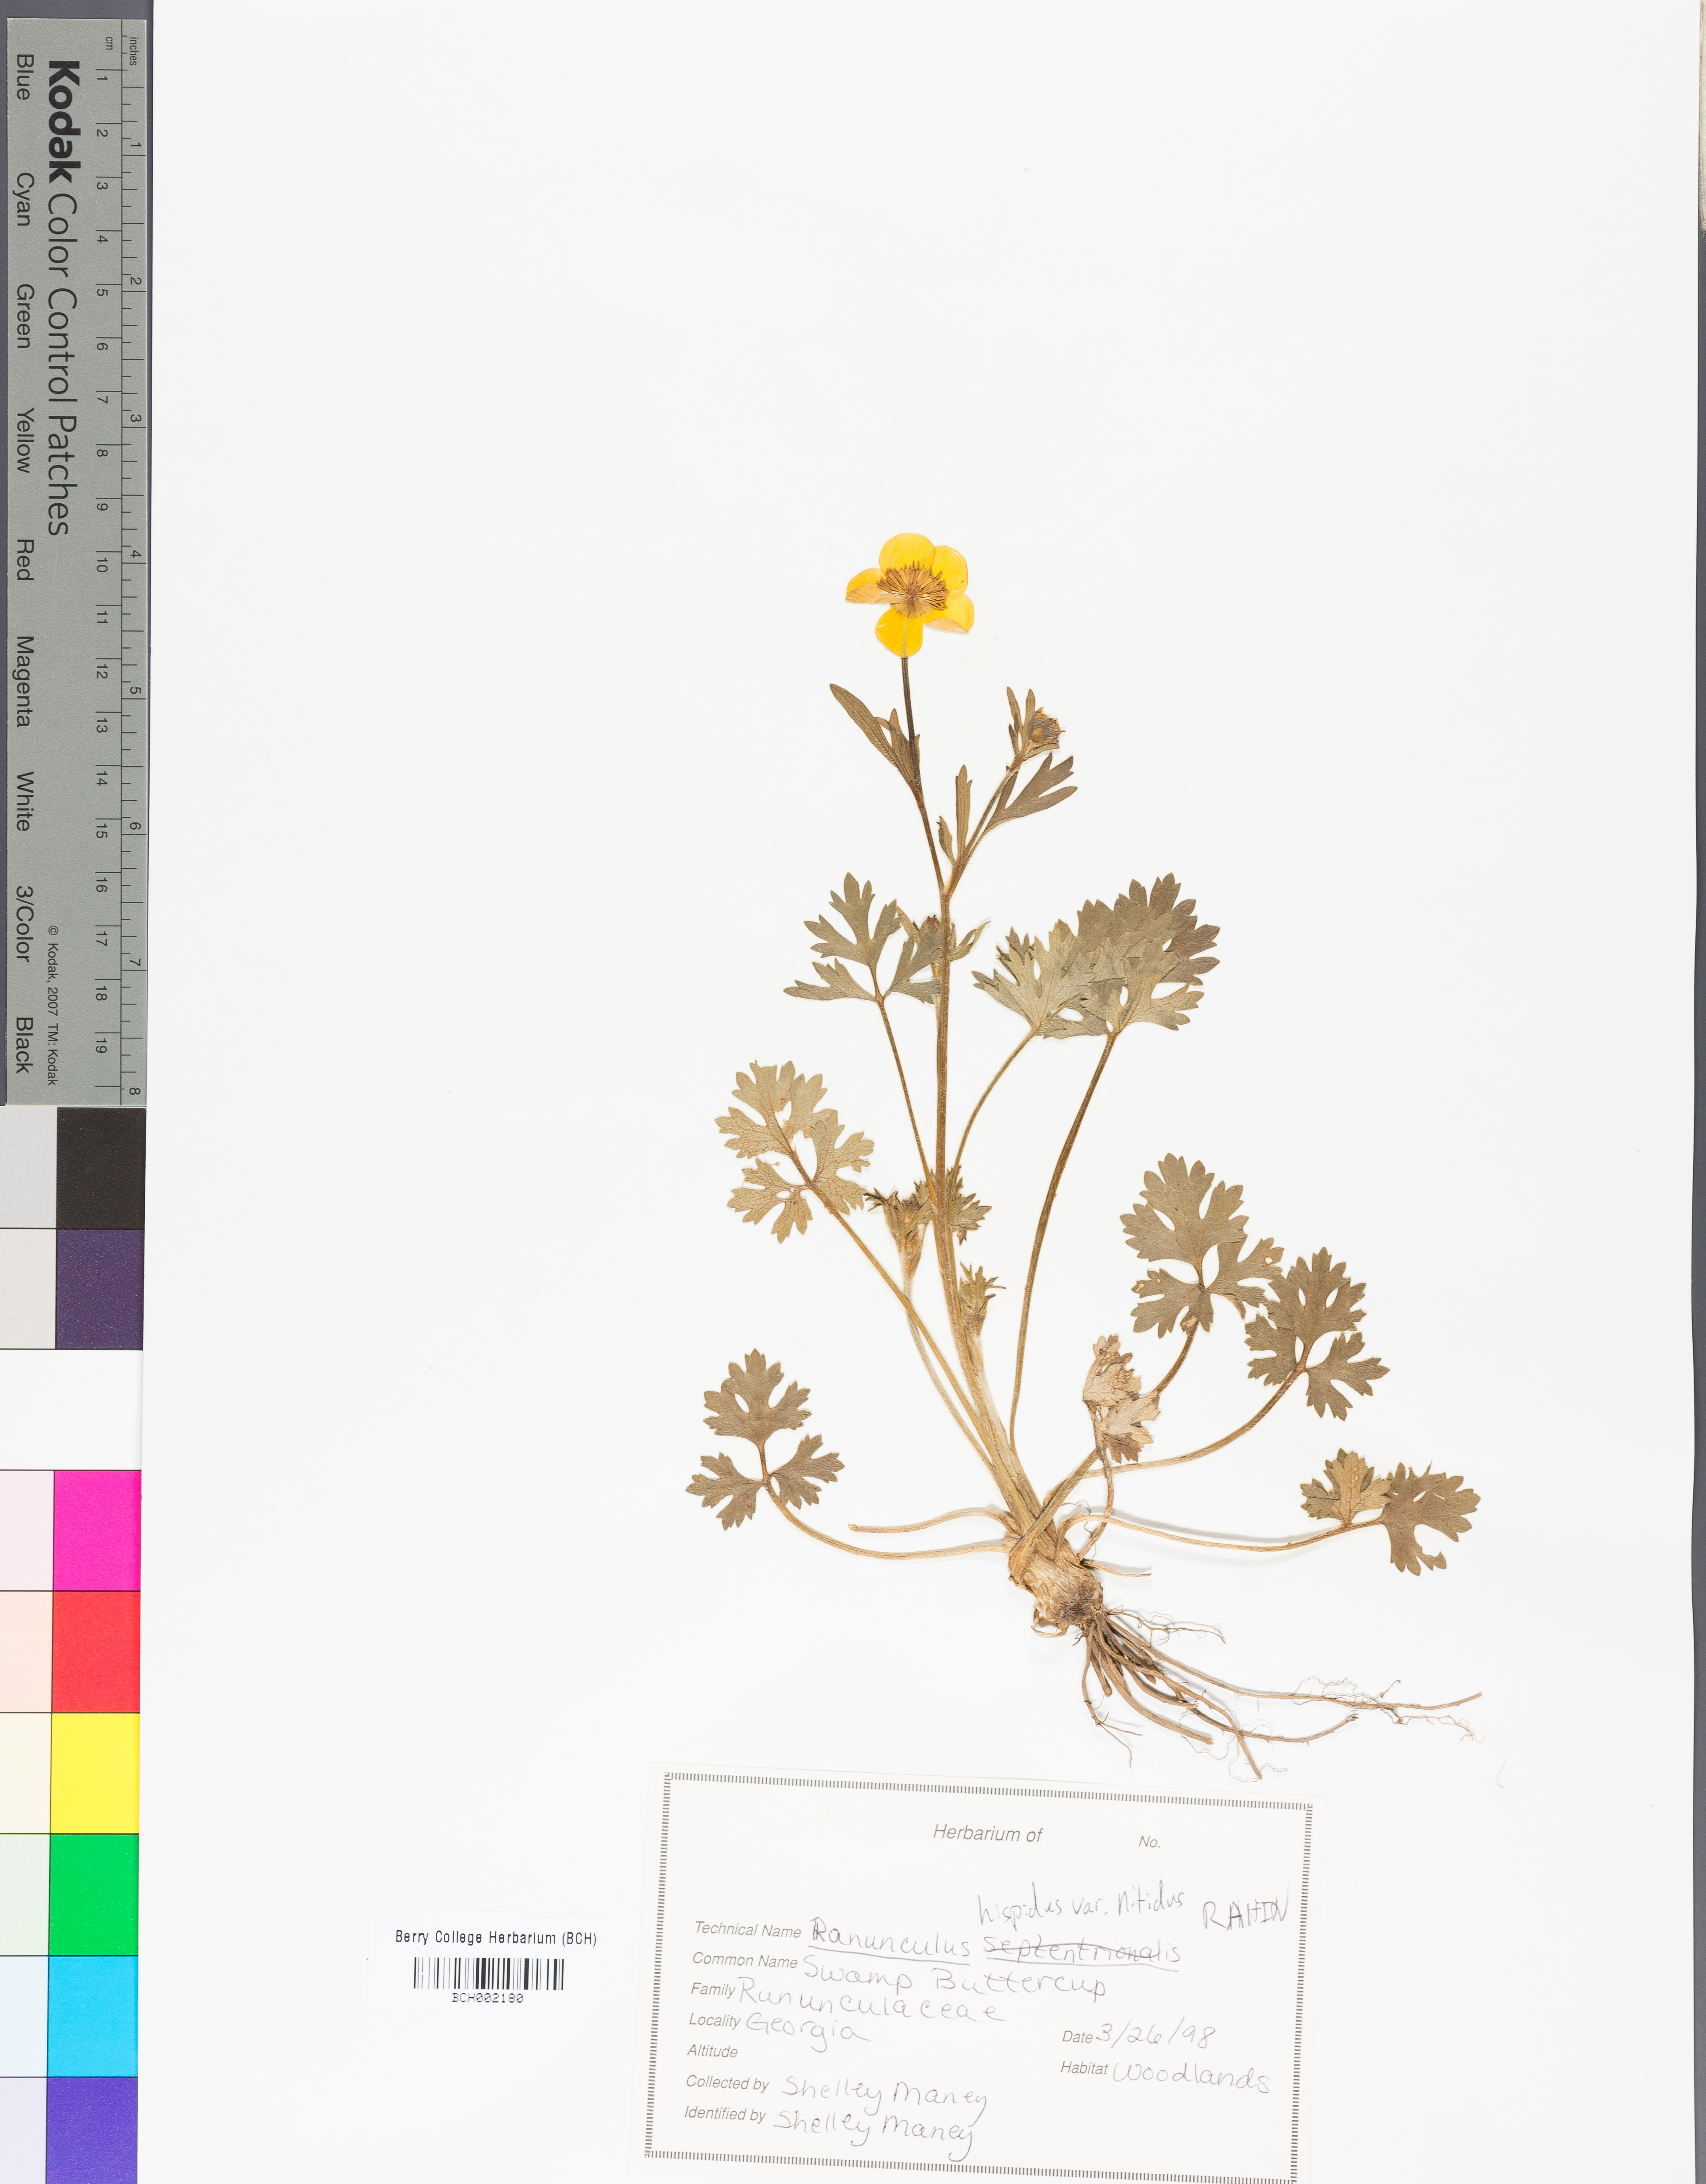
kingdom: Plantae
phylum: Tracheophyta
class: Magnoliopsida
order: Ranunculales
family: Ranunculaceae
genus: Ranunculus
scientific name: Ranunculus hispidus
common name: Bristly buttercup
